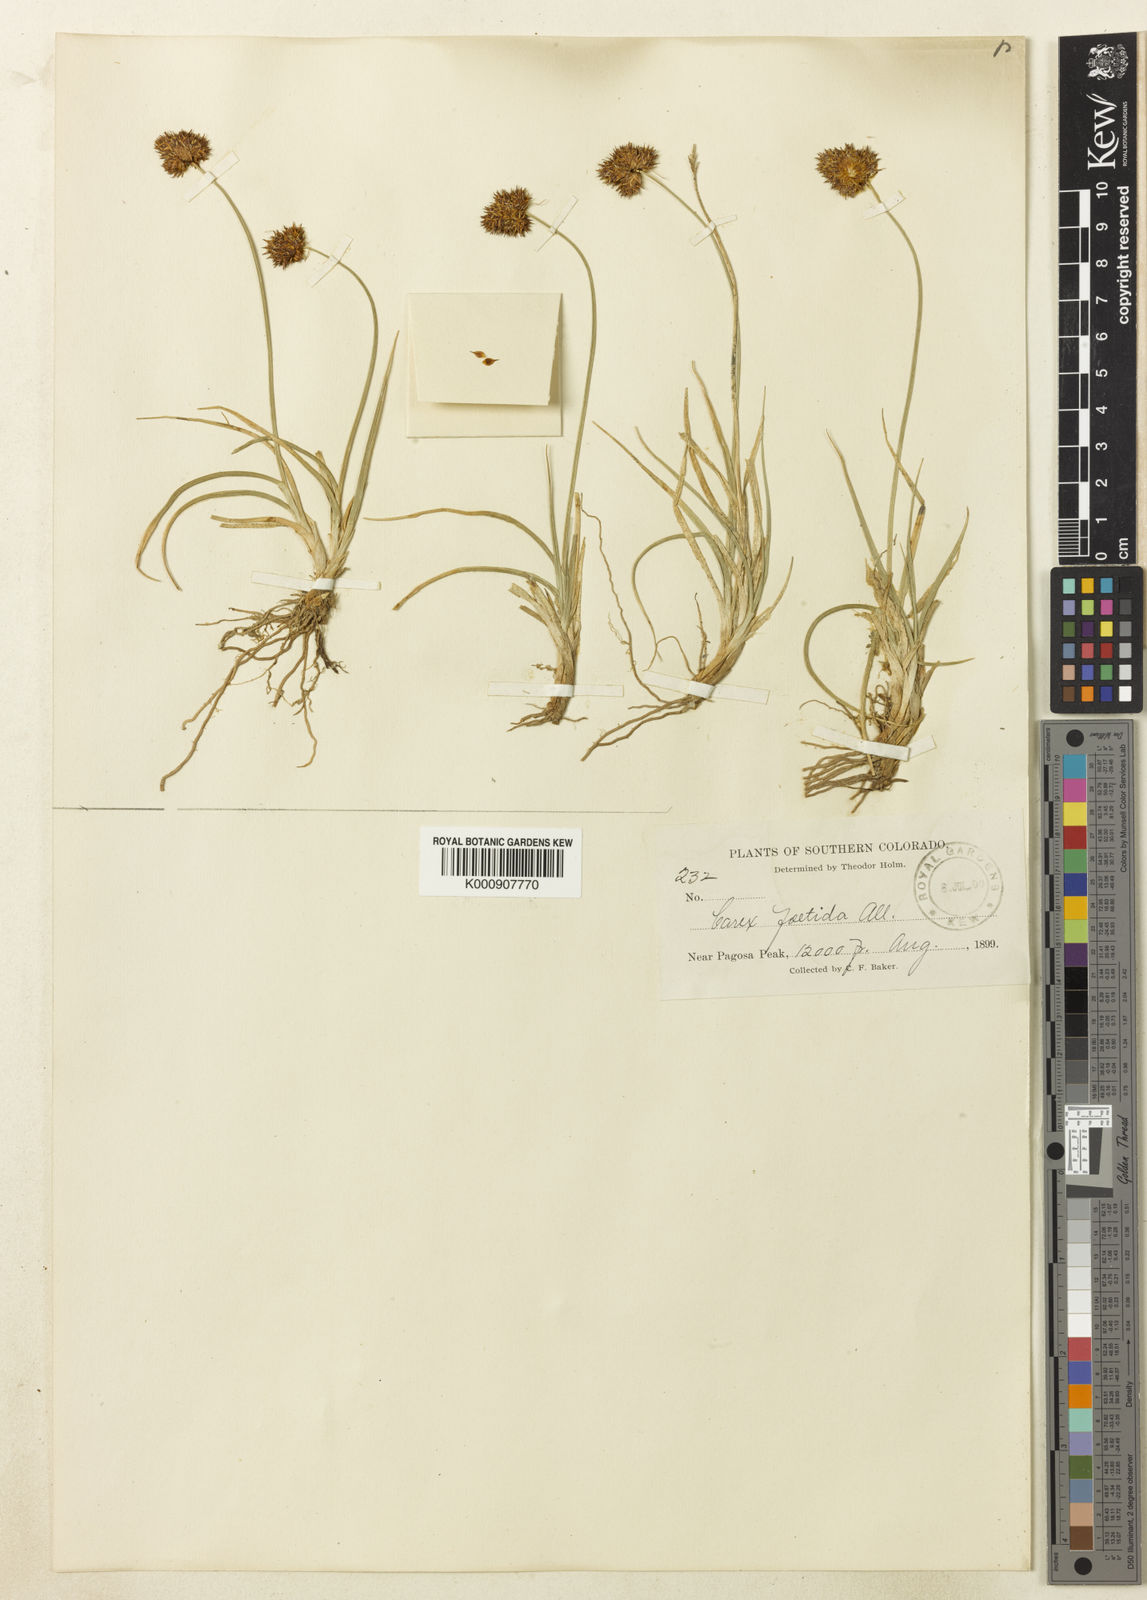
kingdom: Plantae
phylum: Tracheophyta
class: Liliopsida
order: Poales
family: Cyperaceae
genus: Carex
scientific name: Carex haydeniana
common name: Cloud sedge
